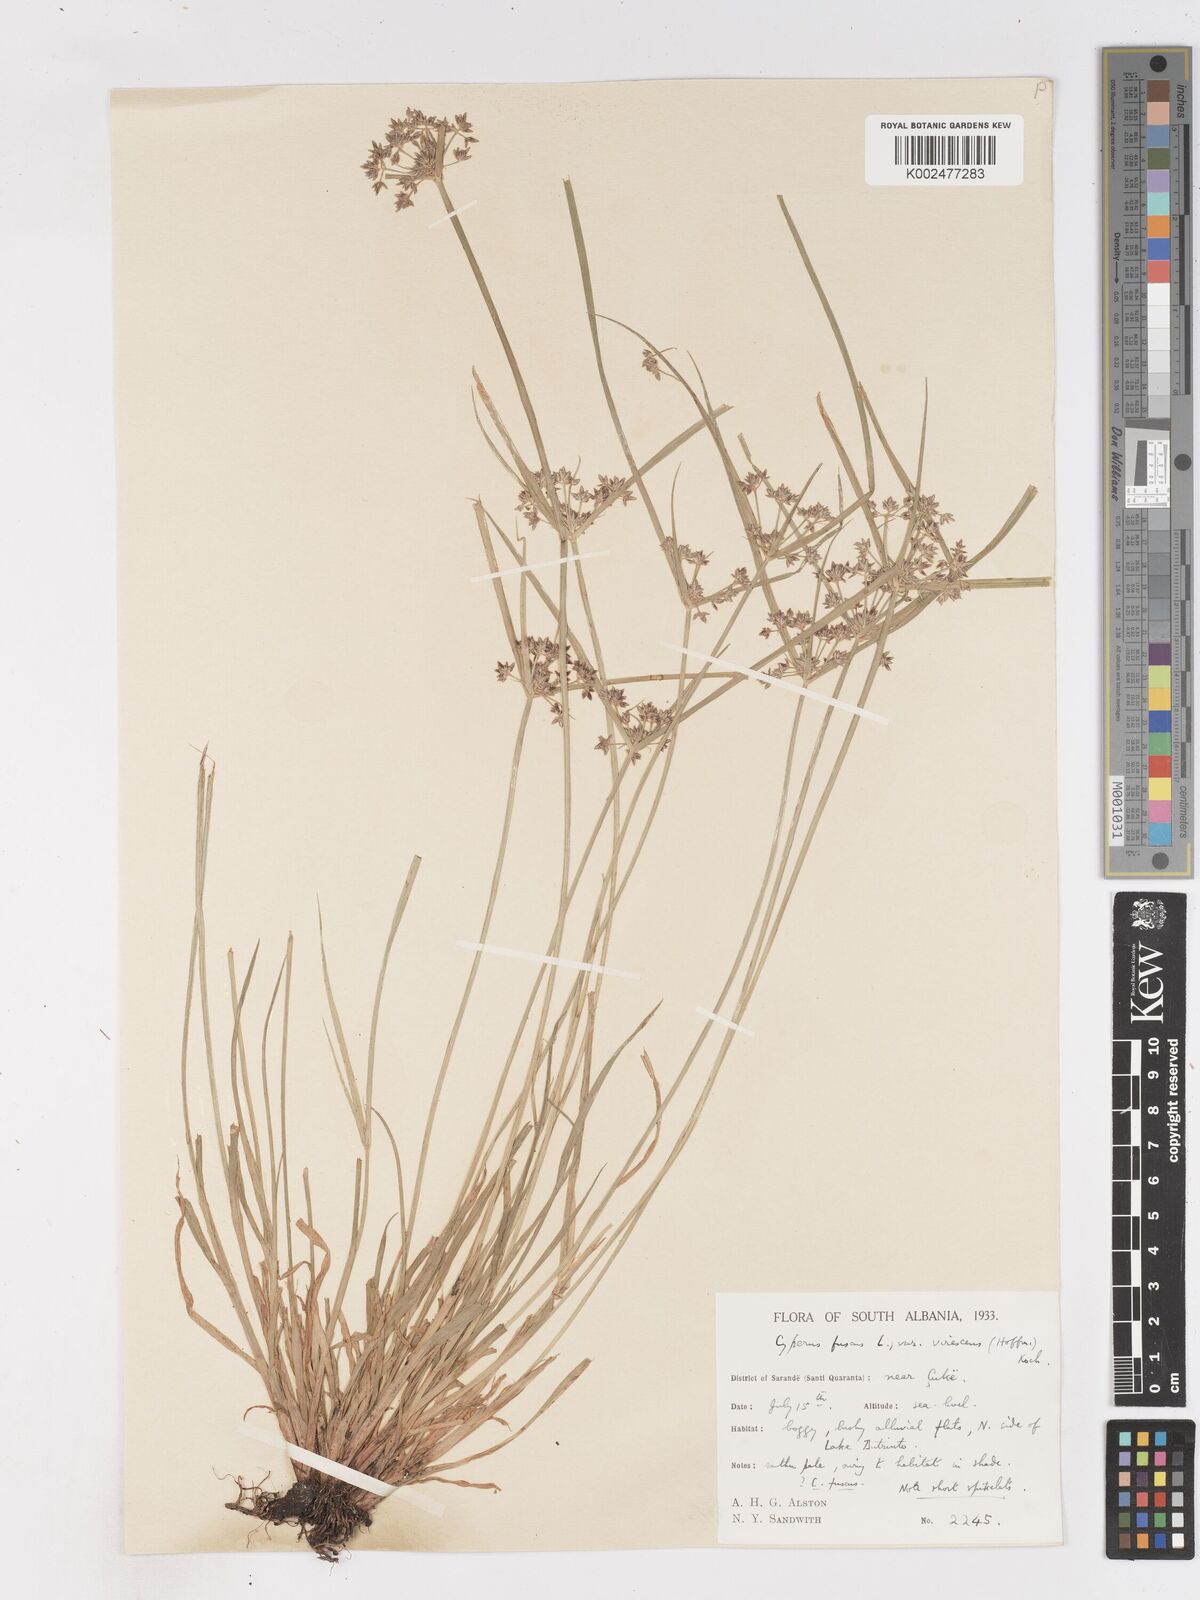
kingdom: Plantae
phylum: Tracheophyta
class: Liliopsida
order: Poales
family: Cyperaceae
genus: Cyperus
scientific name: Cyperus fuscus
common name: Brown galingale
